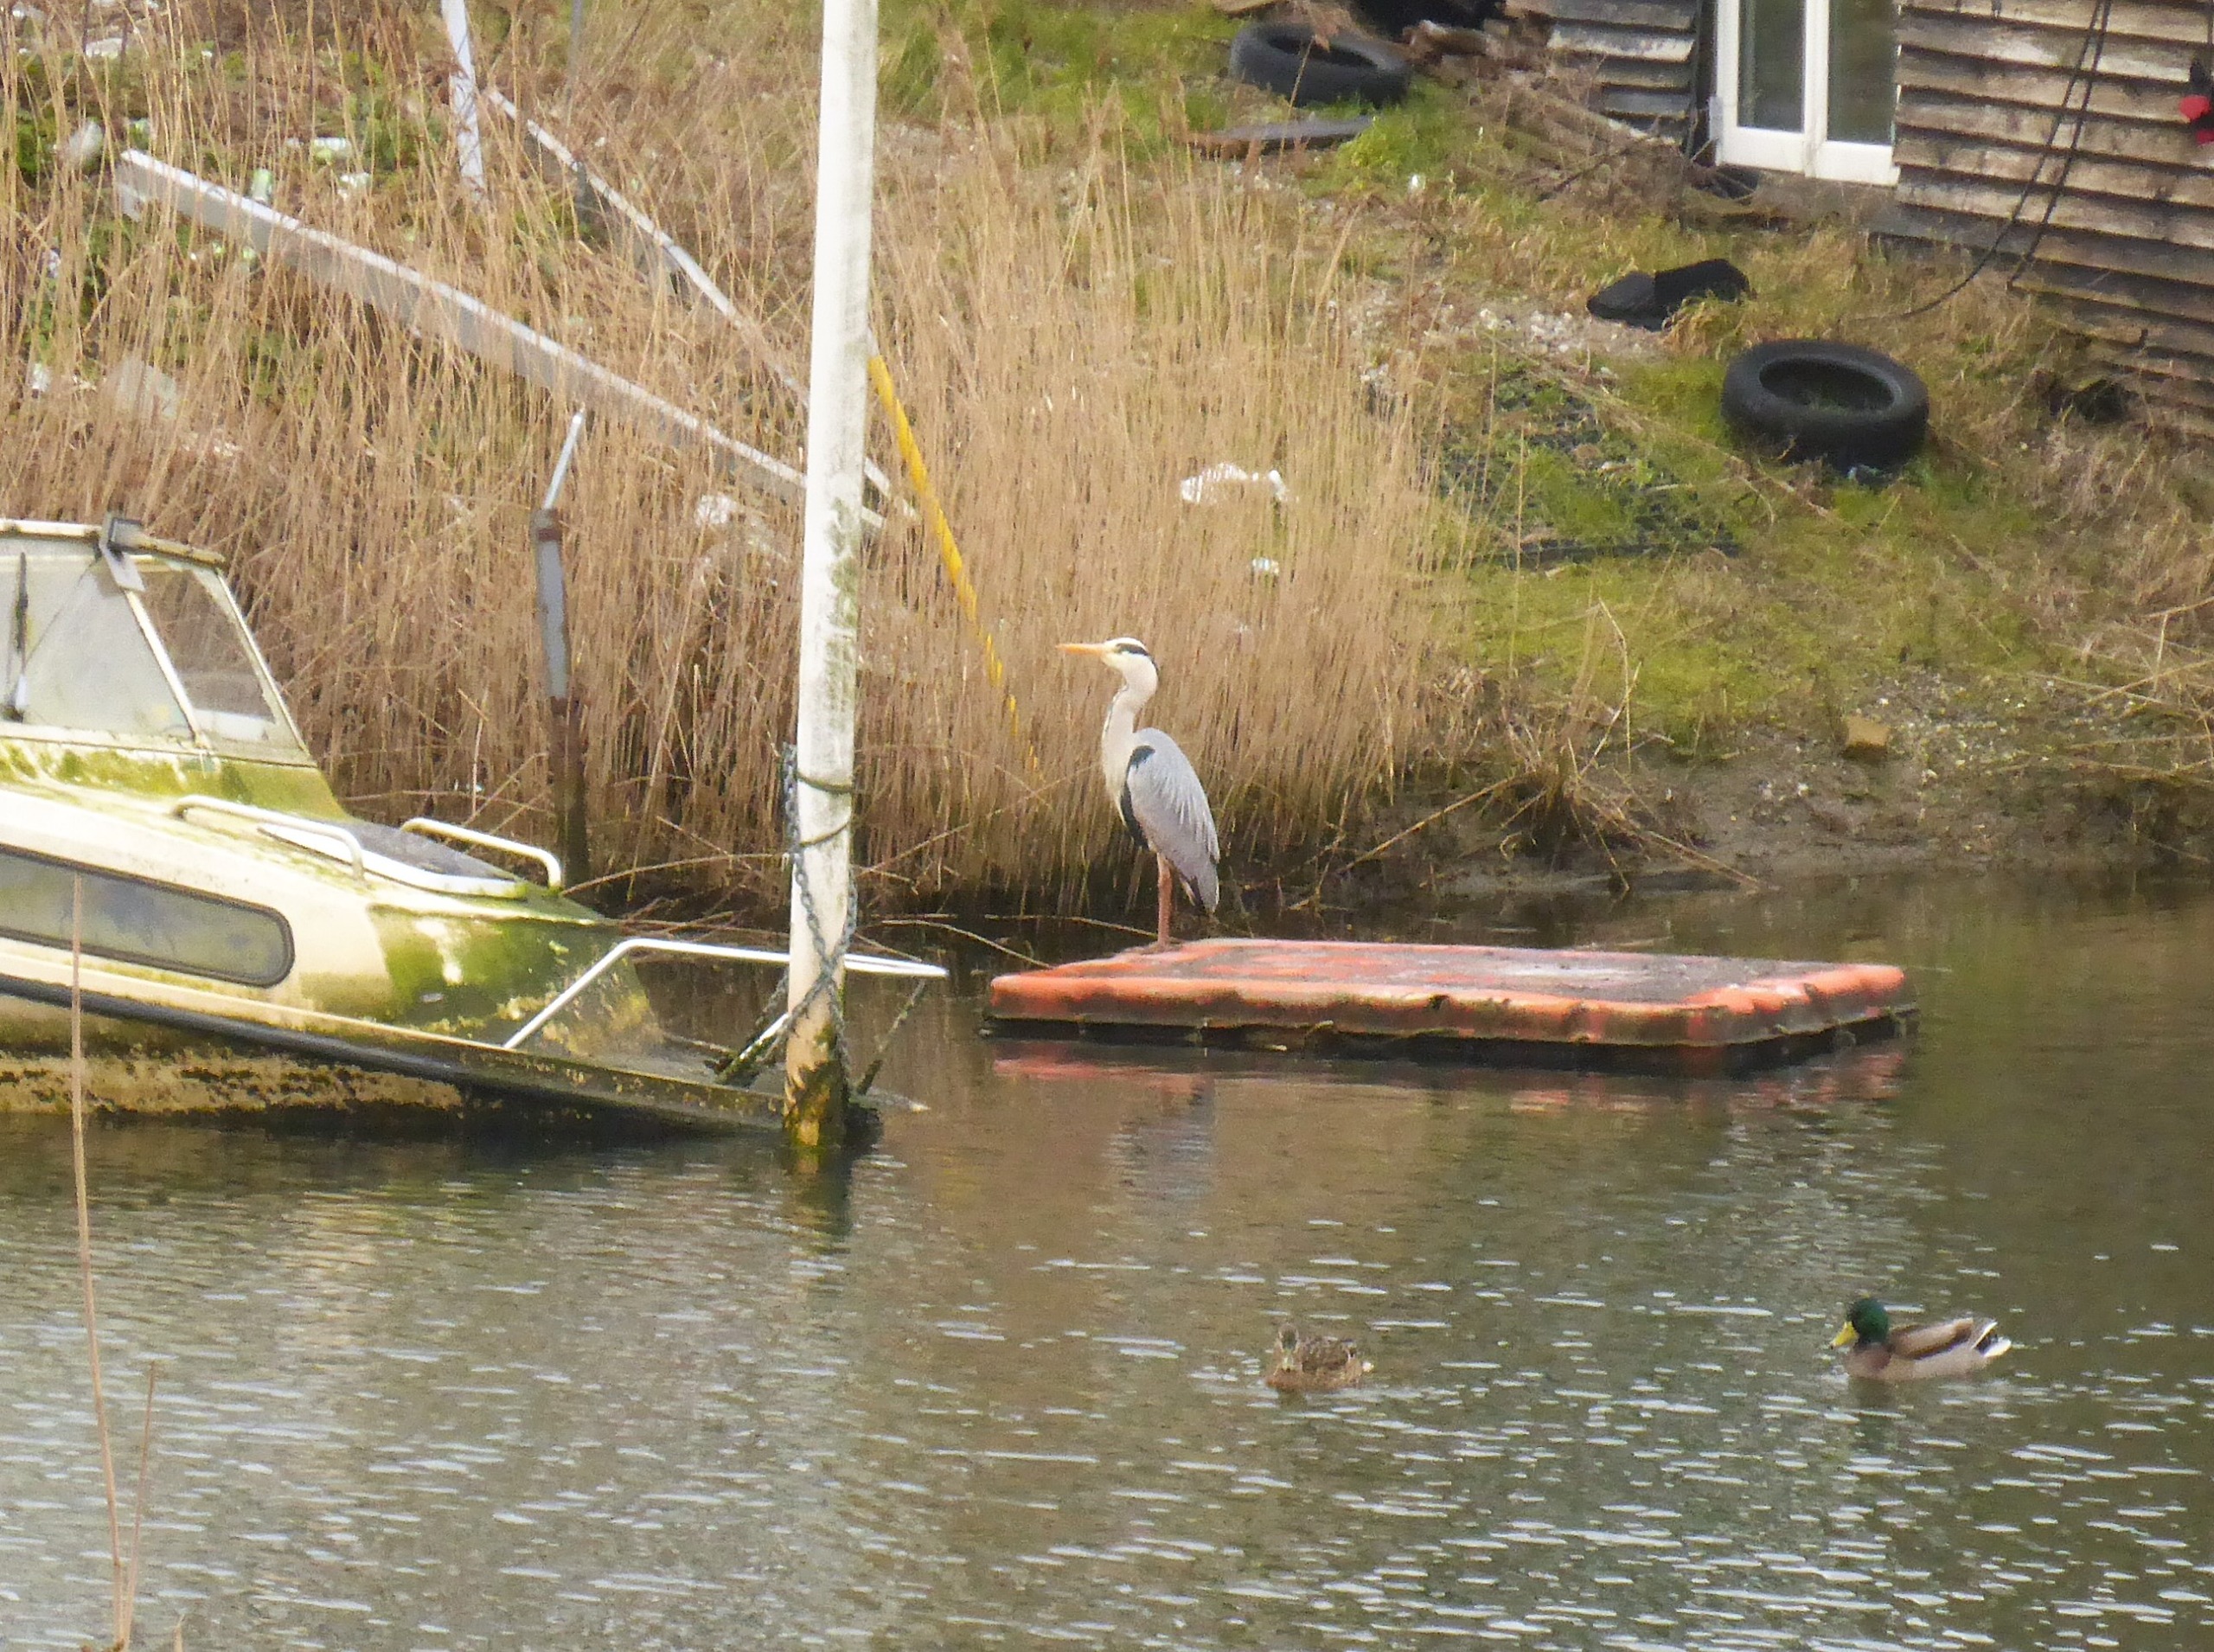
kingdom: Animalia
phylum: Chordata
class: Aves
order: Pelecaniformes
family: Ardeidae
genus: Ardea
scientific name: Ardea cinerea
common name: Fiskehejre
